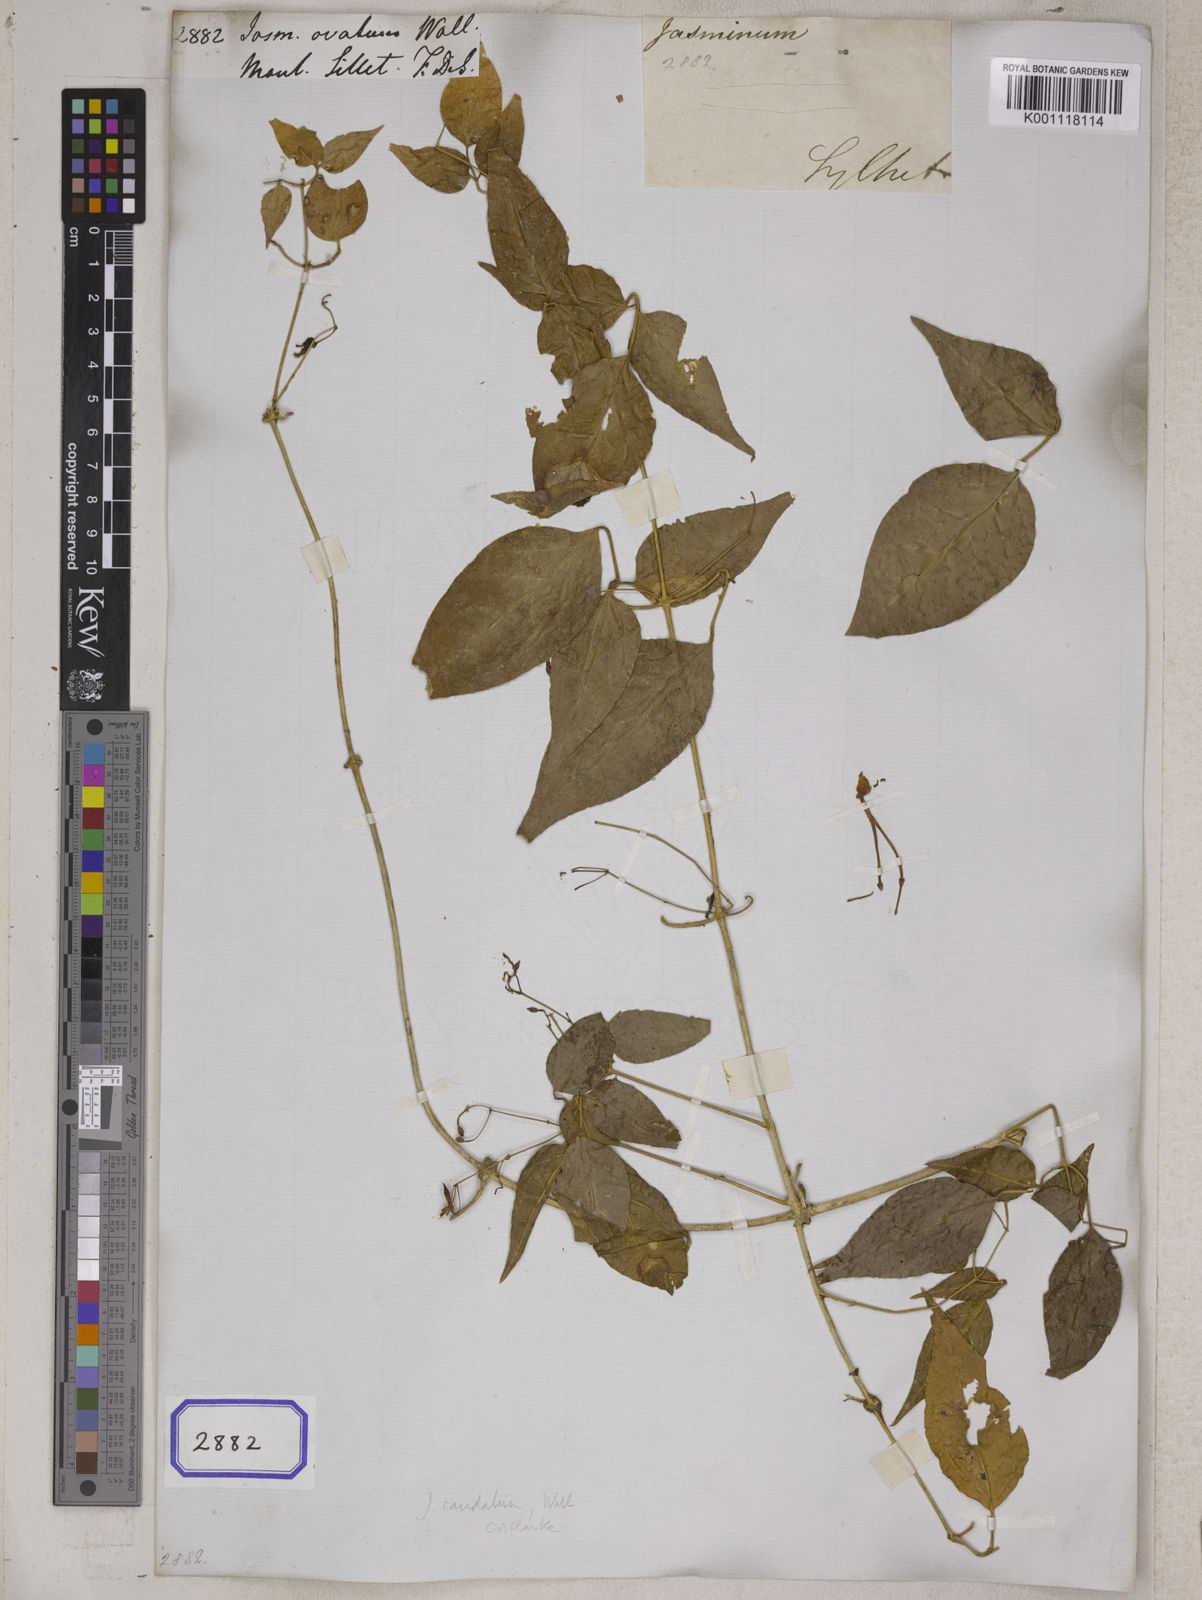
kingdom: Plantae
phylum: Tracheophyta
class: Magnoliopsida
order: Lamiales
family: Oleaceae
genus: Jasminum
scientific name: Jasminum caudatum
